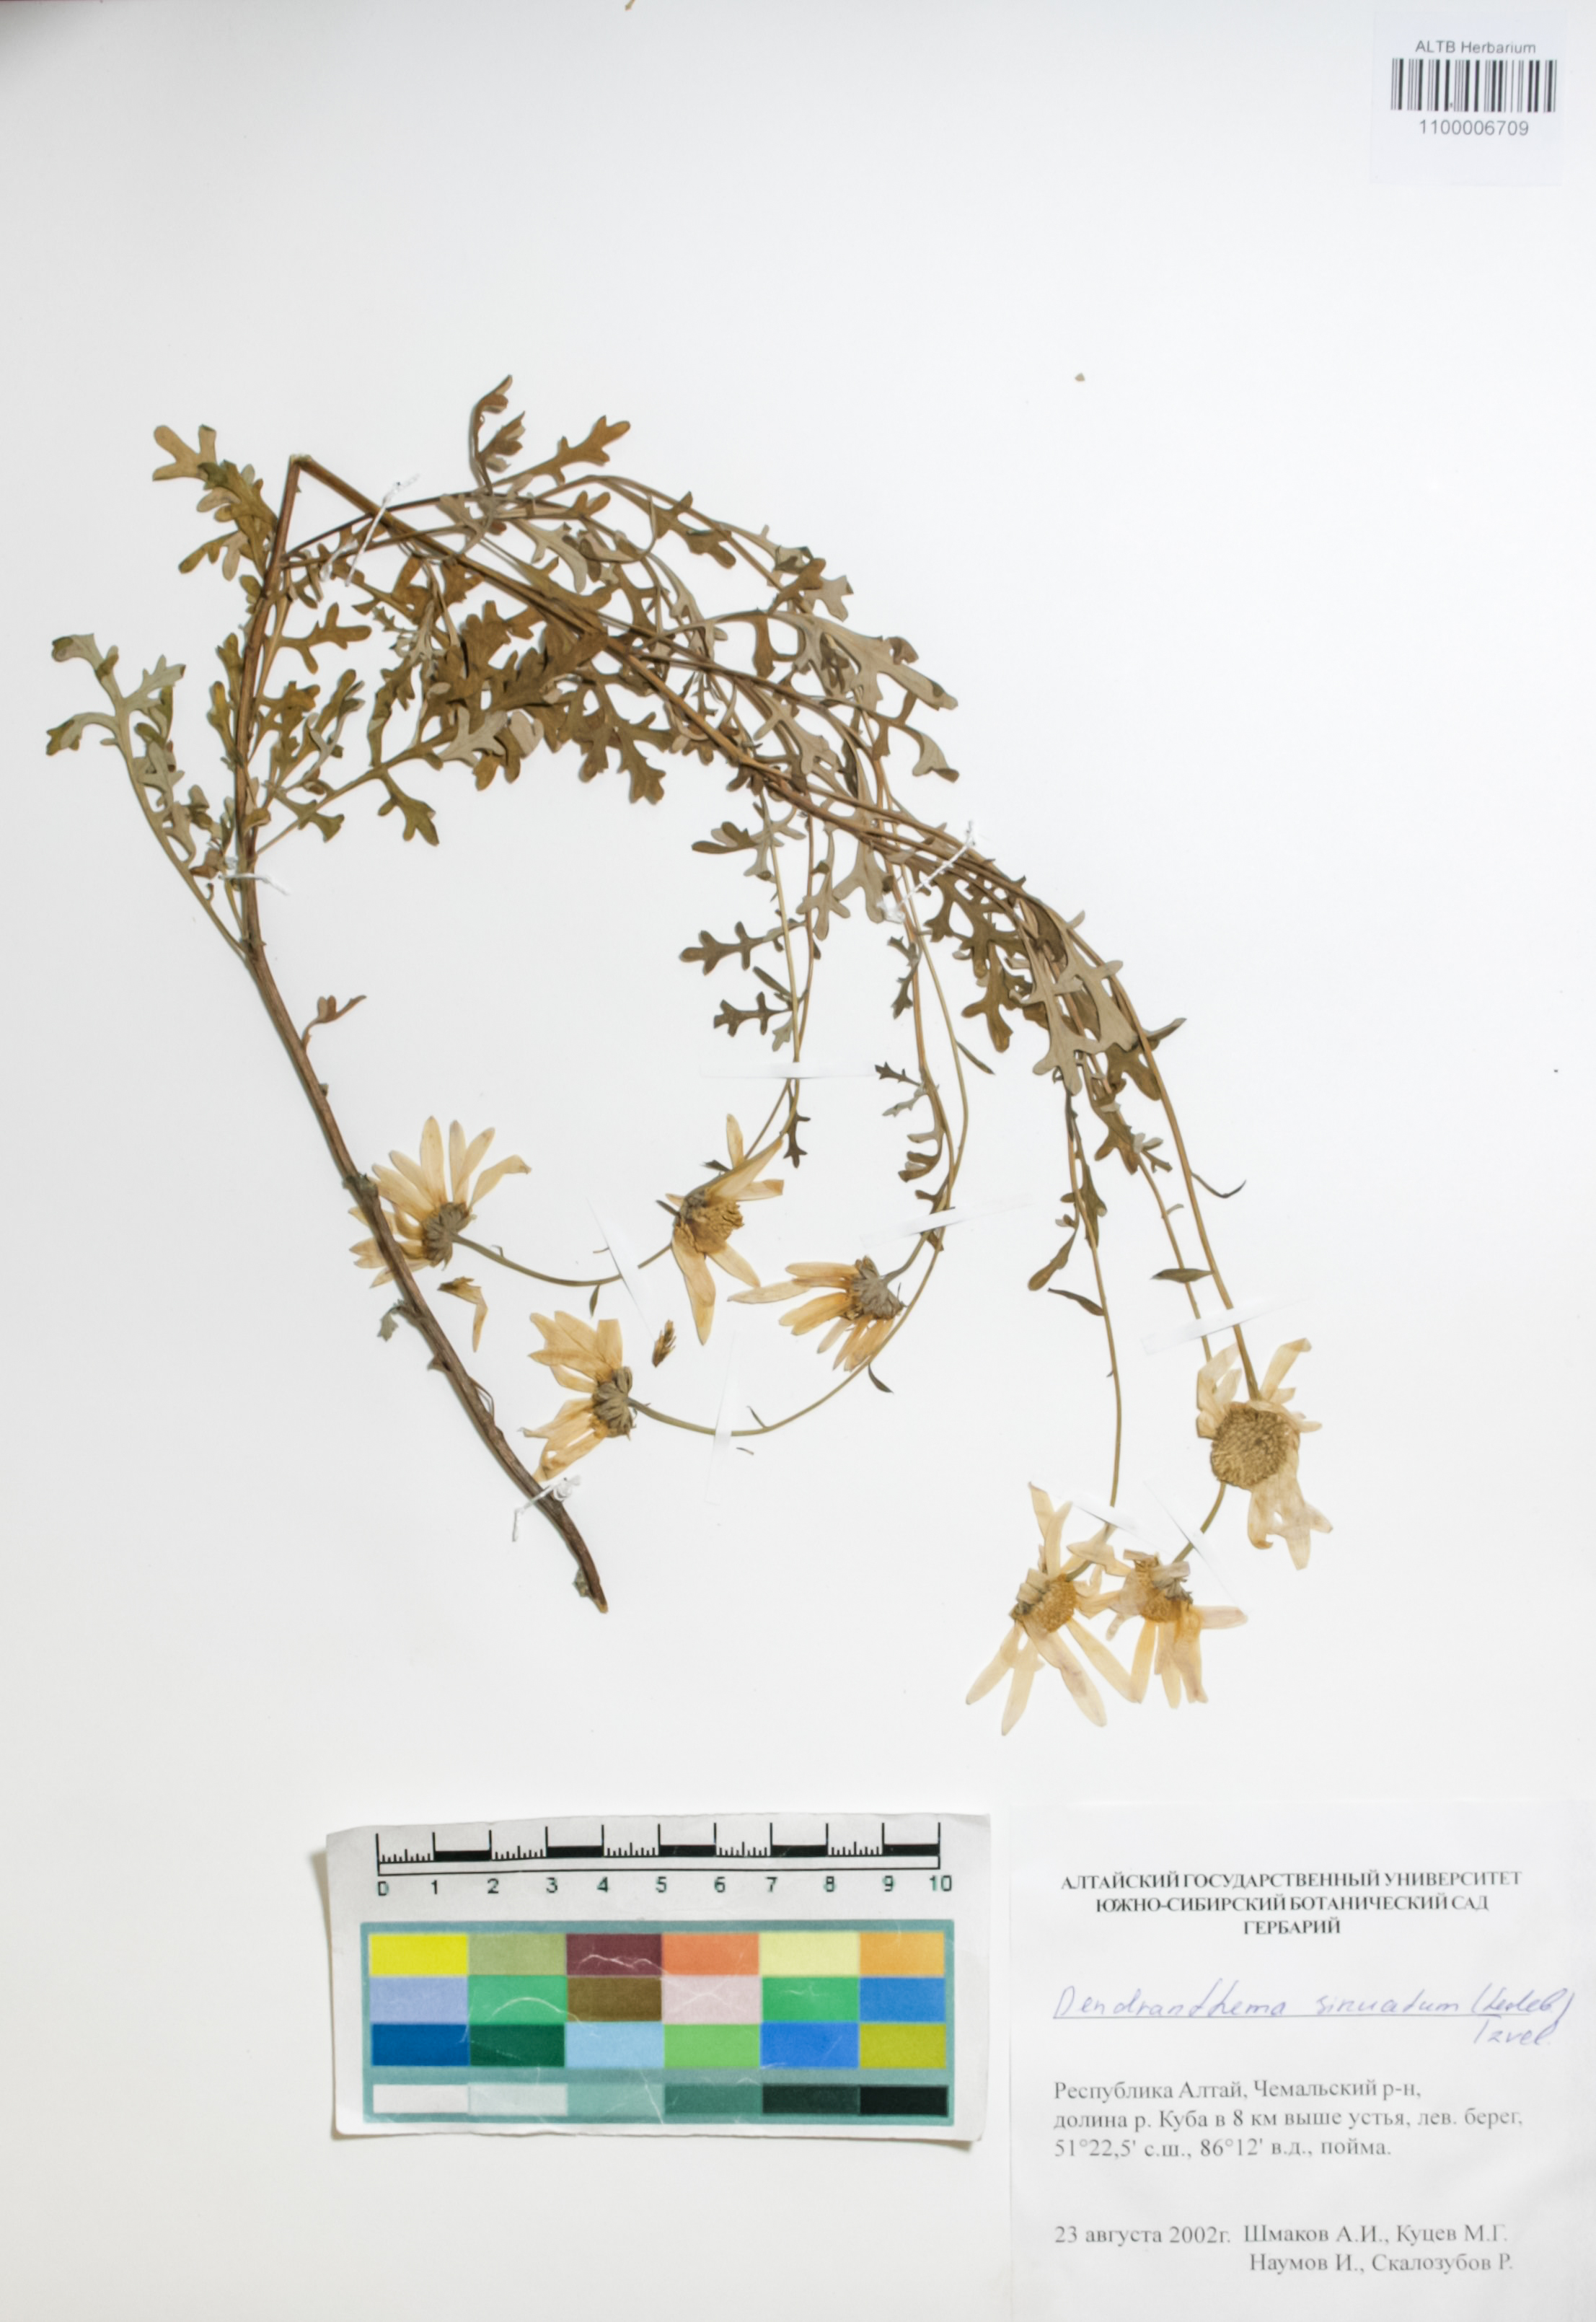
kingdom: Plantae
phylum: Tracheophyta
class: Magnoliopsida
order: Asterales
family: Asteraceae
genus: Chrysanthemum
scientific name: Chrysanthemum sinuatum
